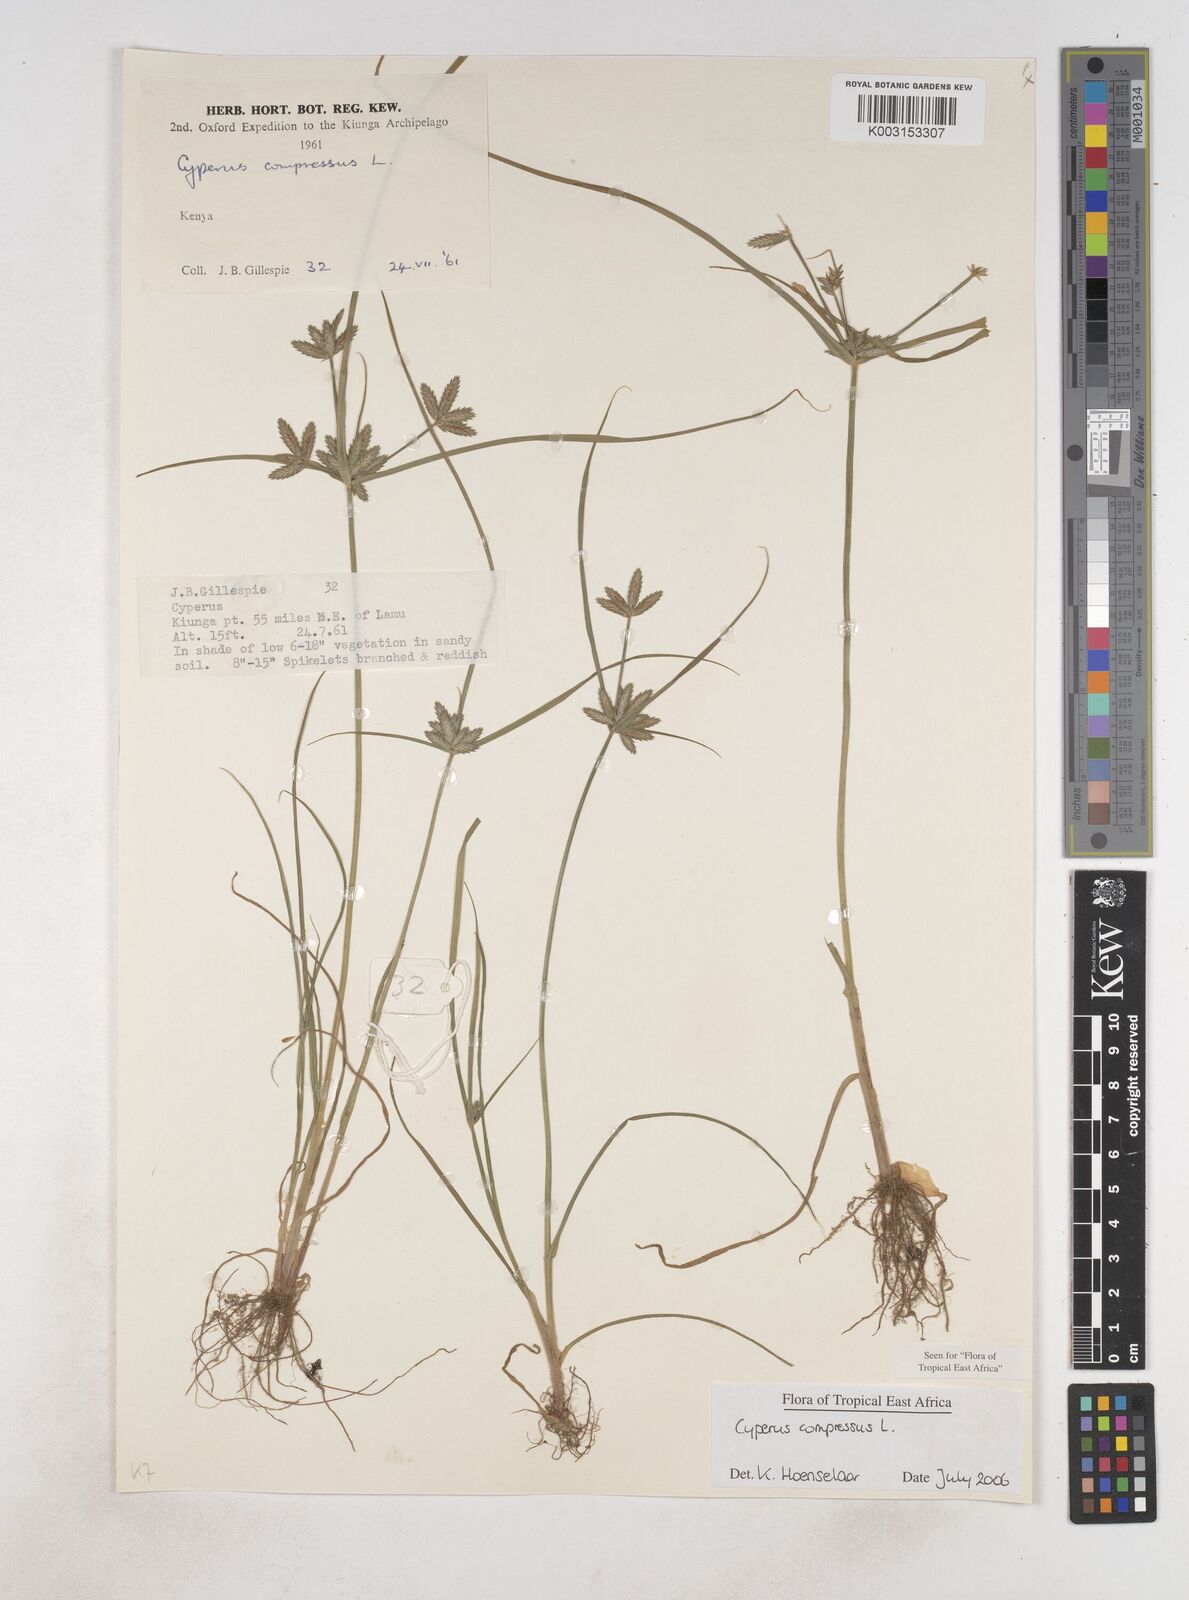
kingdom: Plantae
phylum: Tracheophyta
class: Liliopsida
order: Poales
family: Cyperaceae
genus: Cyperus
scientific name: Cyperus compressus
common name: Poorland flatsedge
